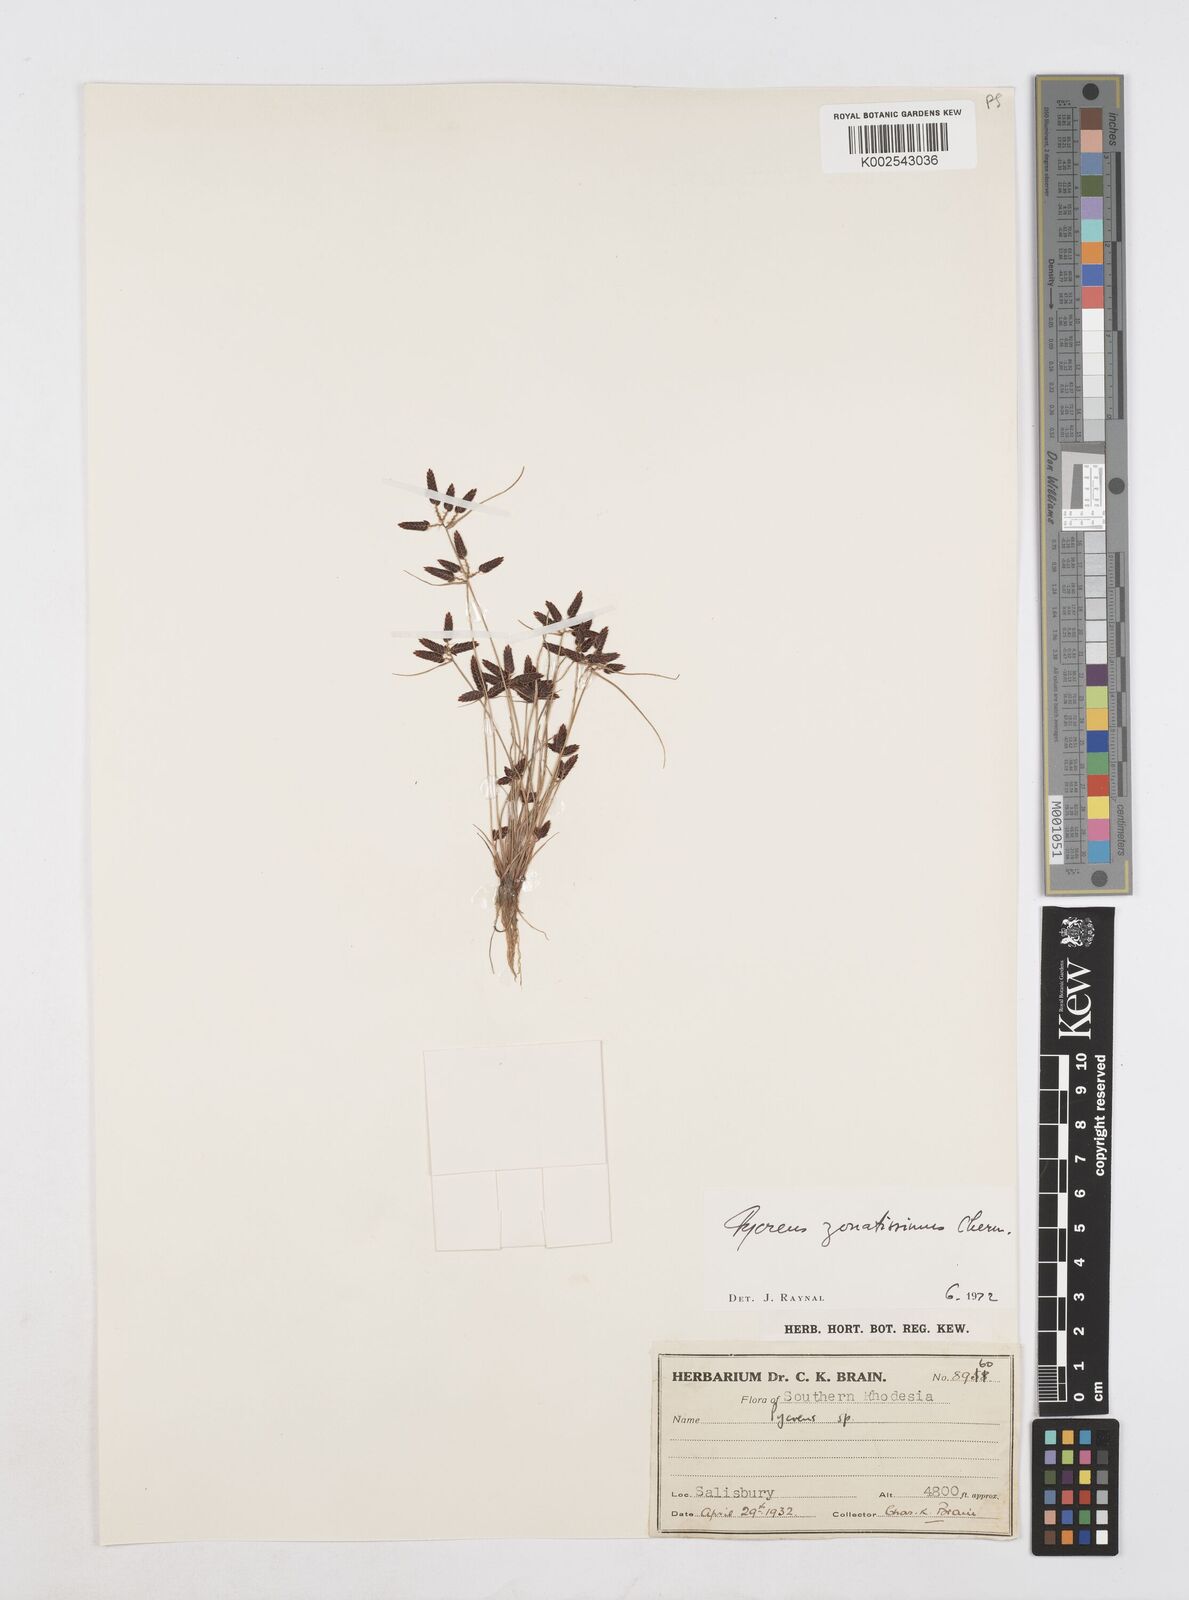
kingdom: Plantae
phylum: Tracheophyta
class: Liliopsida
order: Poales
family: Cyperaceae
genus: Cyperus
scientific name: Cyperus zonatissimus
